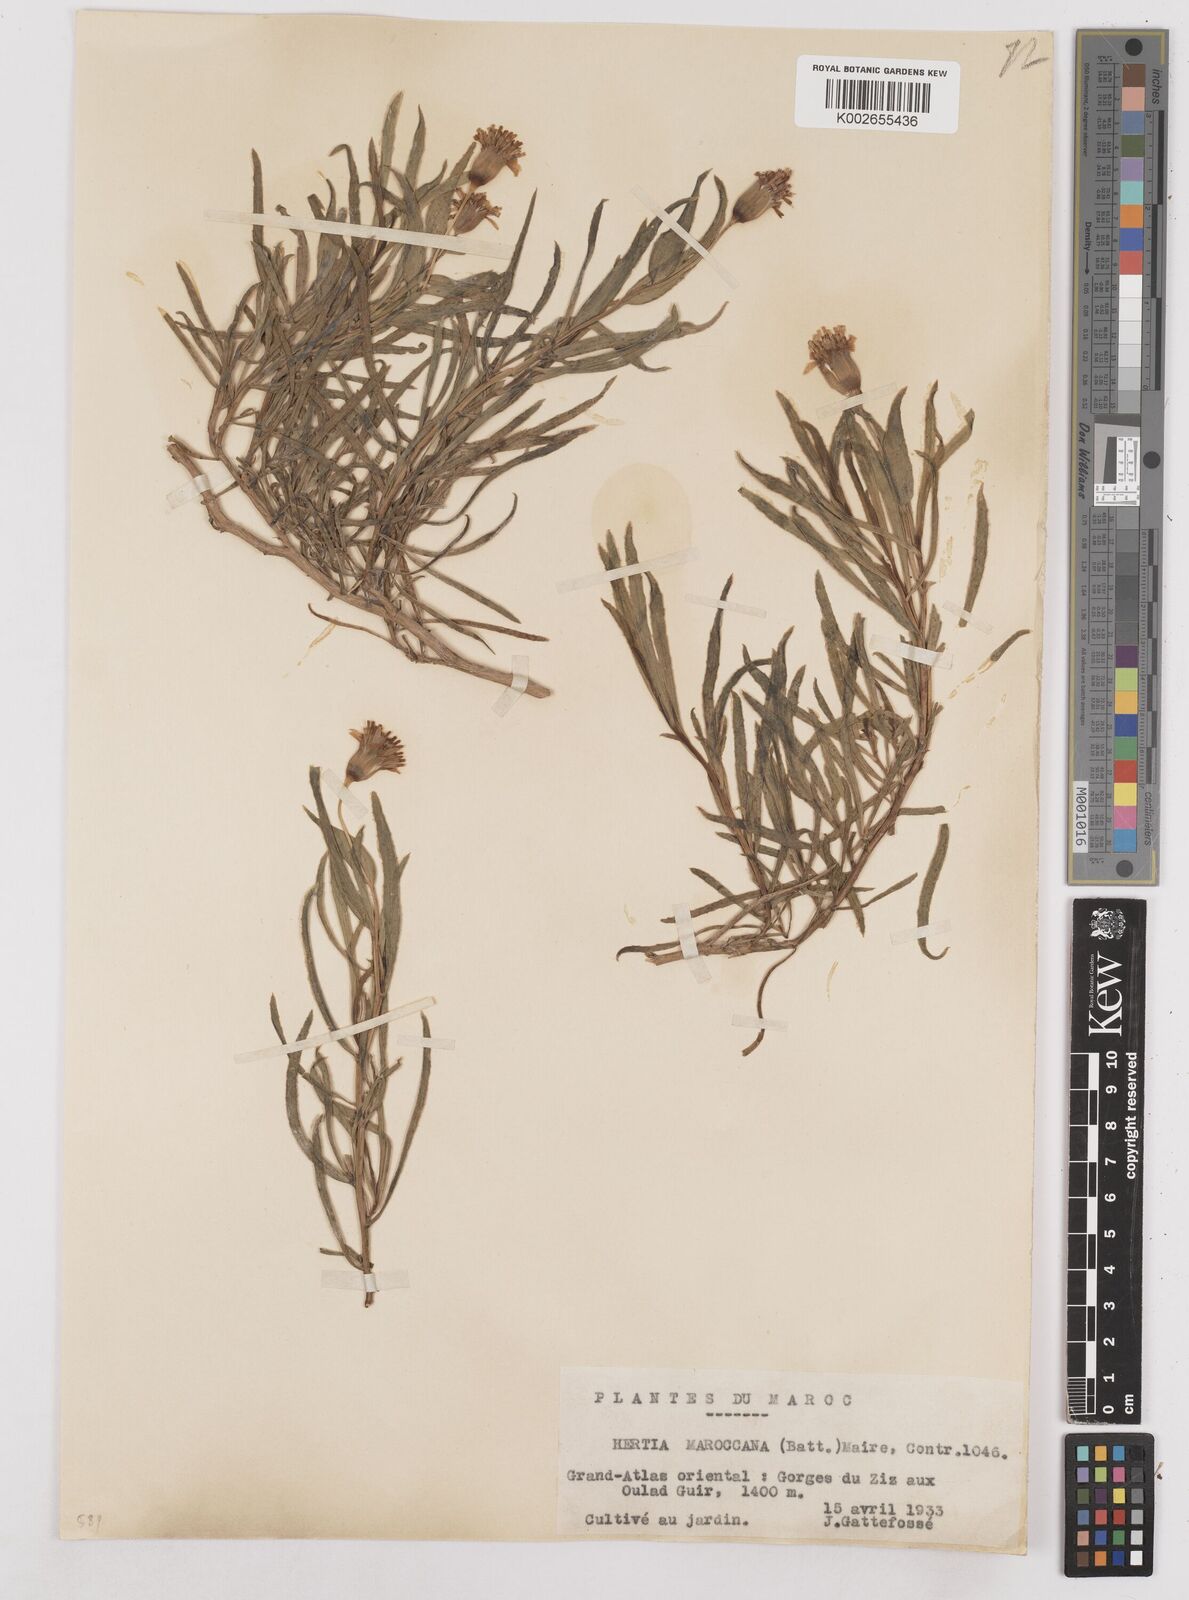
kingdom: Plantae
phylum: Tracheophyta
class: Magnoliopsida
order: Asterales
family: Asteraceae
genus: Hertia
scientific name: Hertia maroccana
